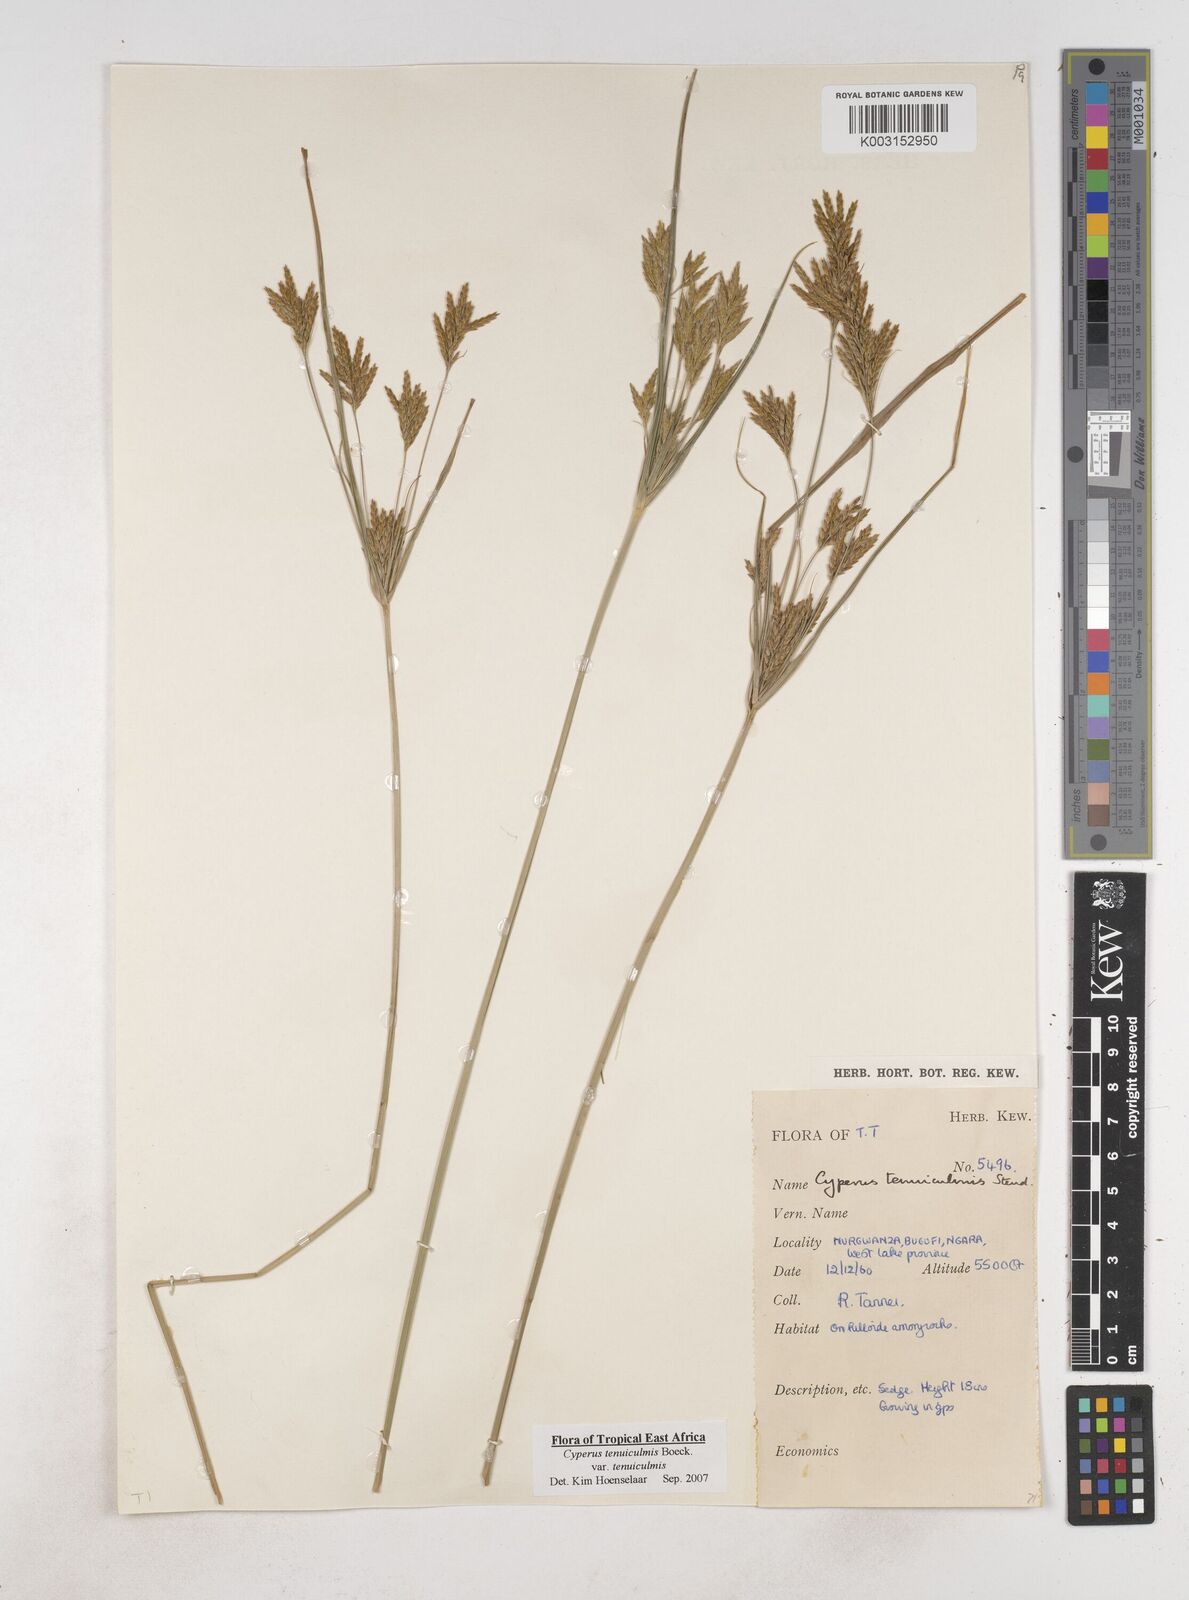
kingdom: Plantae
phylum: Tracheophyta
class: Liliopsida
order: Poales
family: Cyperaceae
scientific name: Cyperaceae
